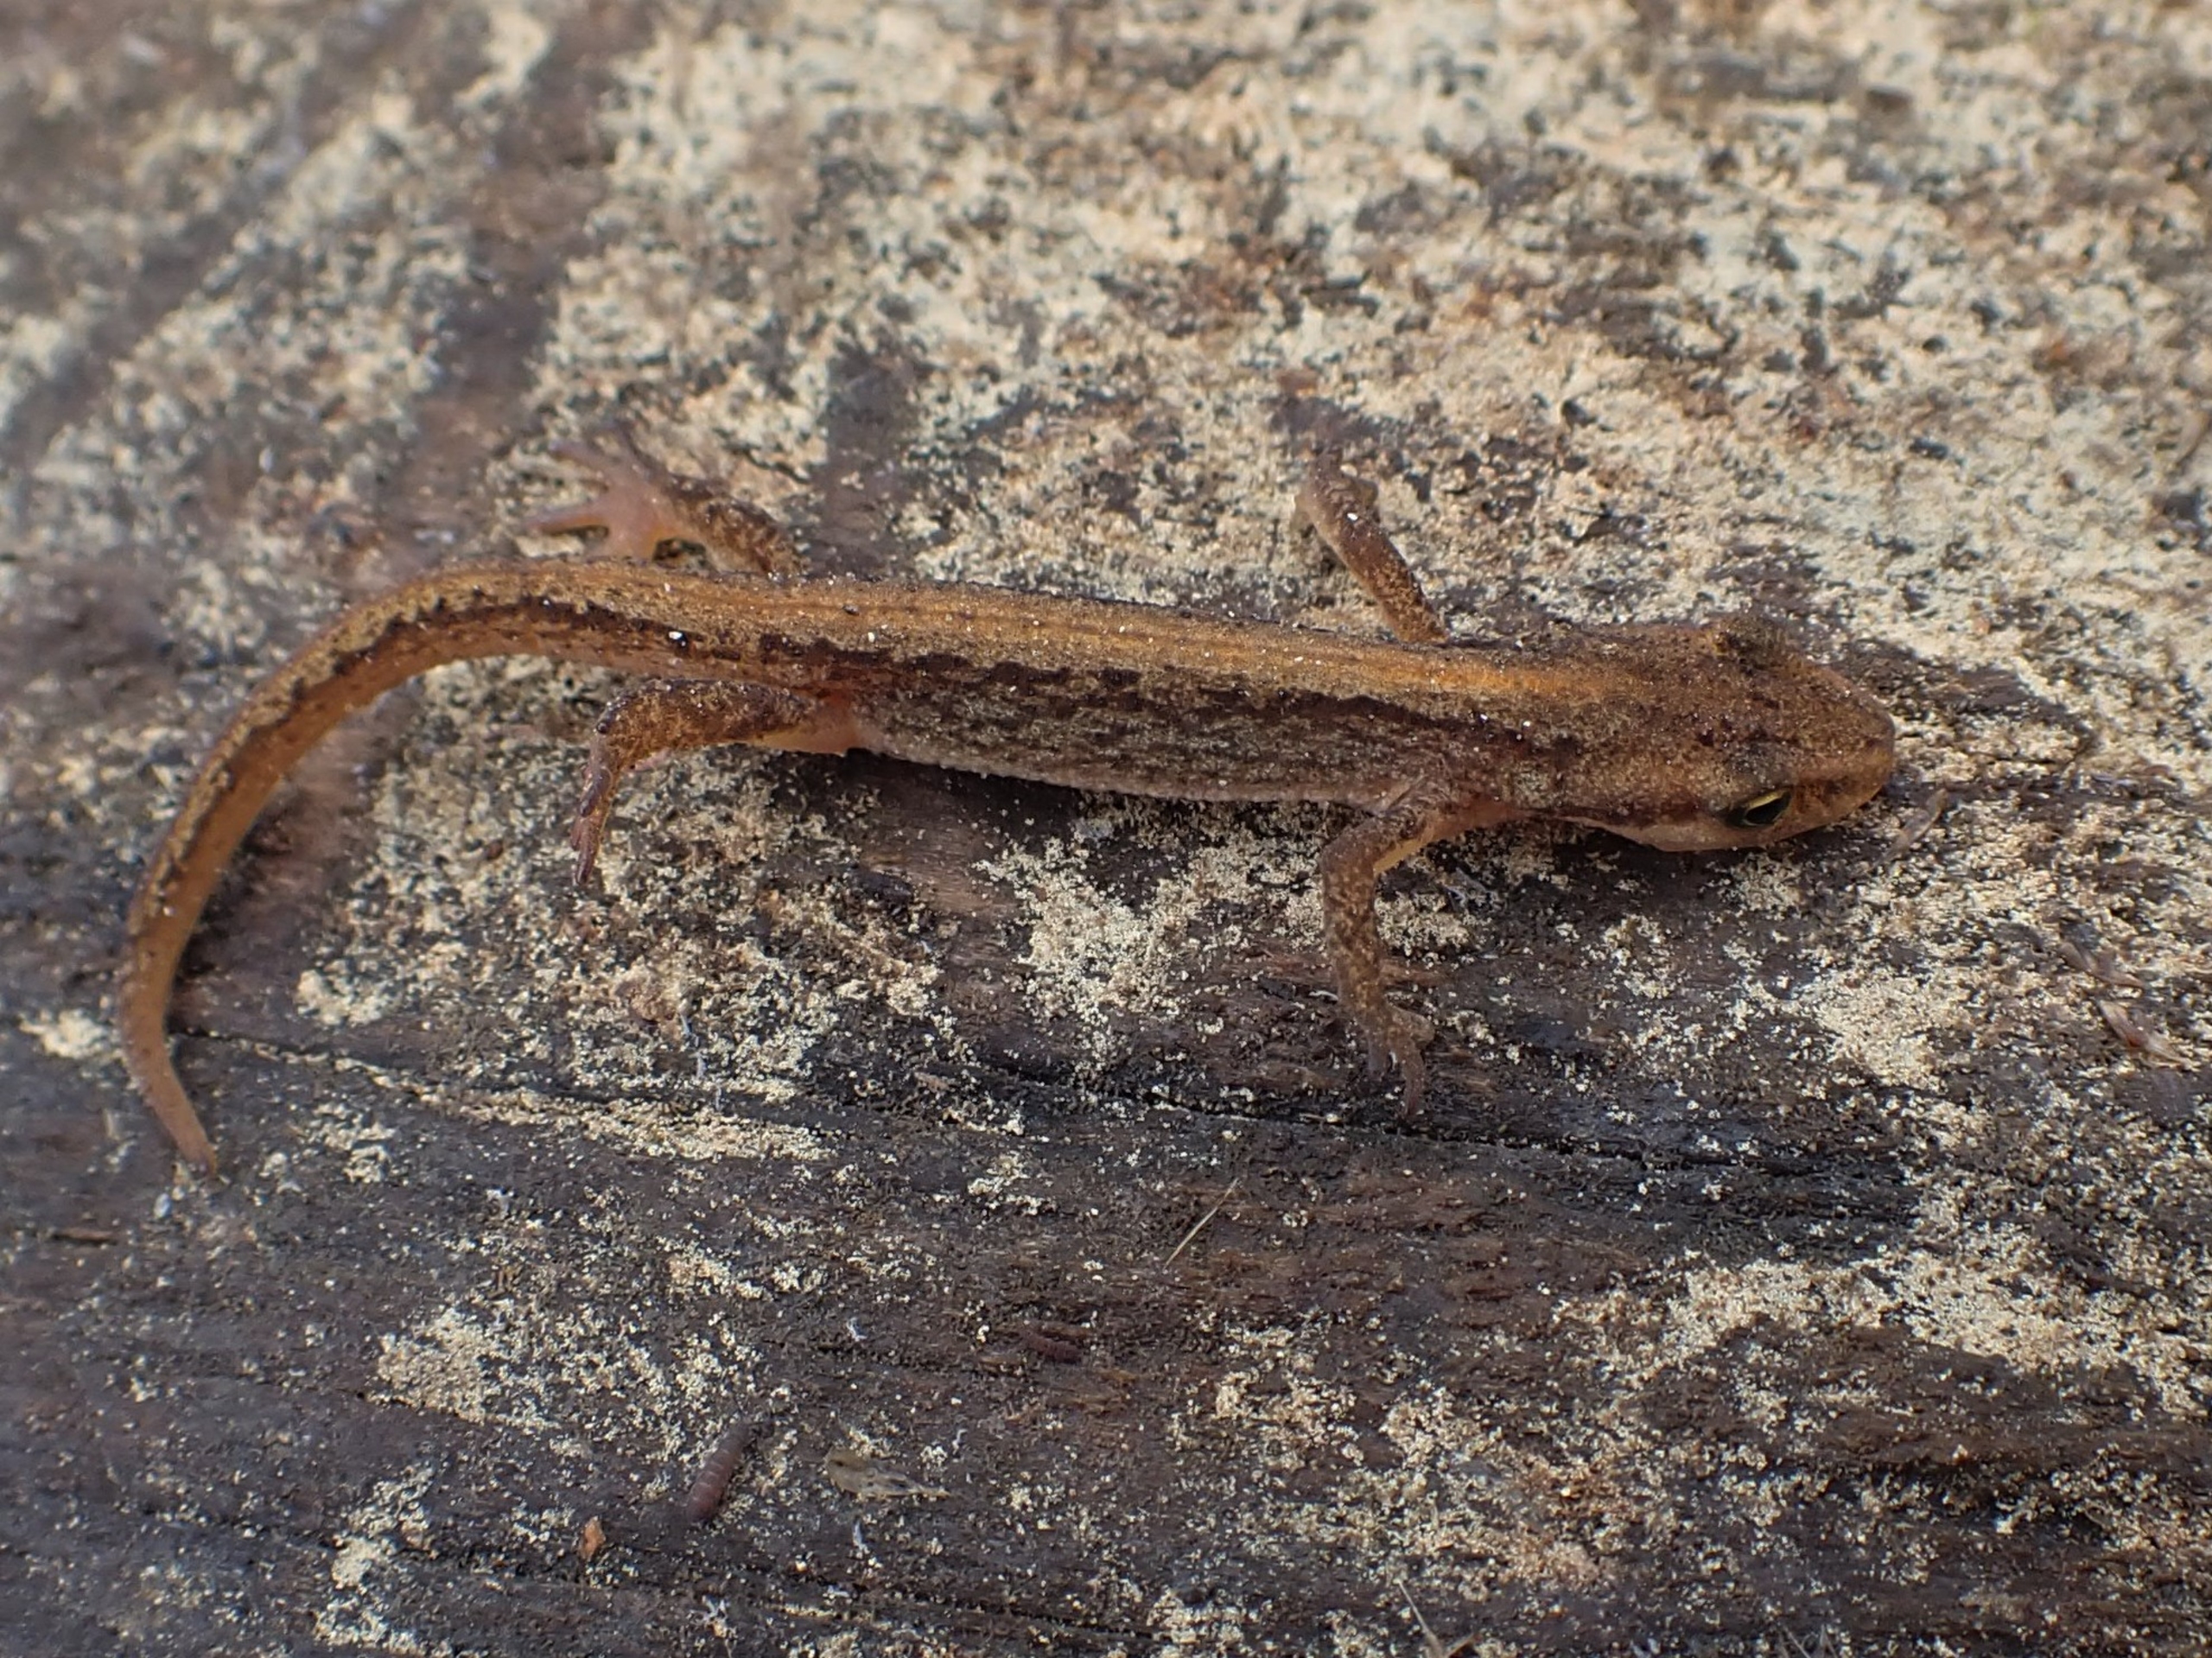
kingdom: Animalia
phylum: Chordata
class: Amphibia
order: Caudata
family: Salamandridae
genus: Lissotriton
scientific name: Lissotriton vulgaris
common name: Lille vandsalamander
